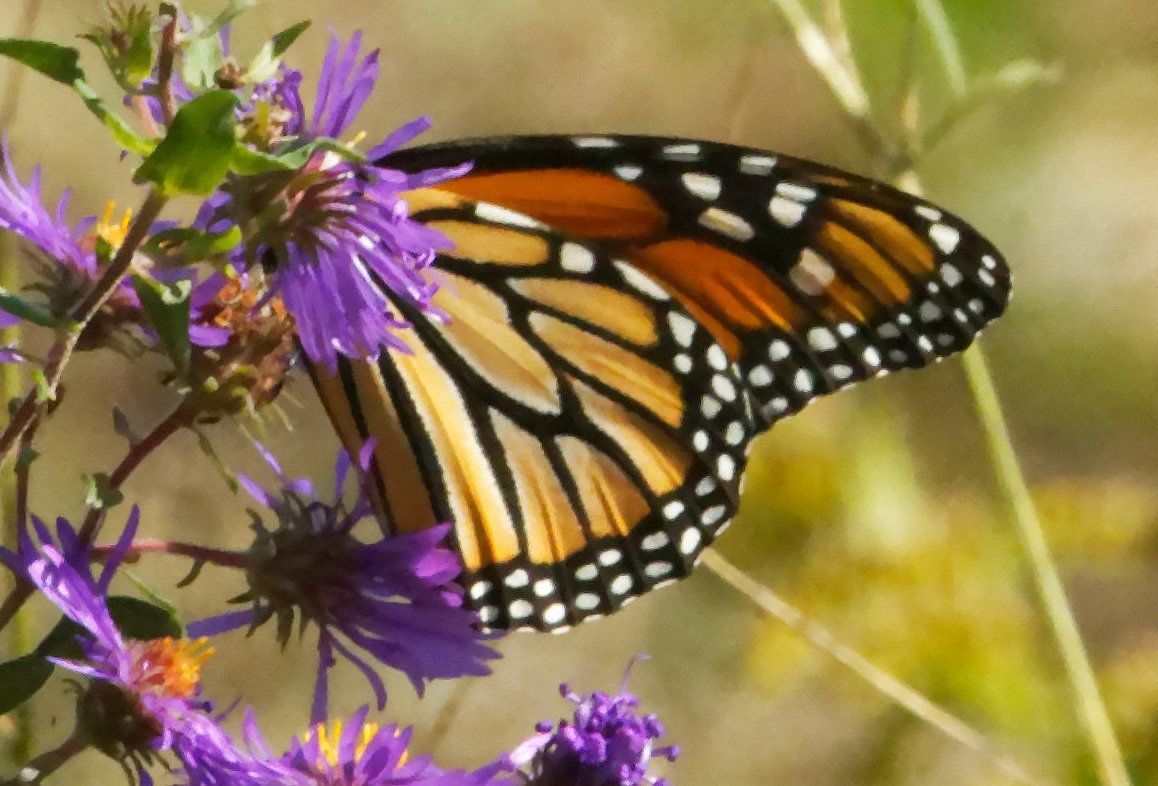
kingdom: Animalia
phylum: Arthropoda
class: Insecta
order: Lepidoptera
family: Nymphalidae
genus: Danaus
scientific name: Danaus plexippus
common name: Monarch
